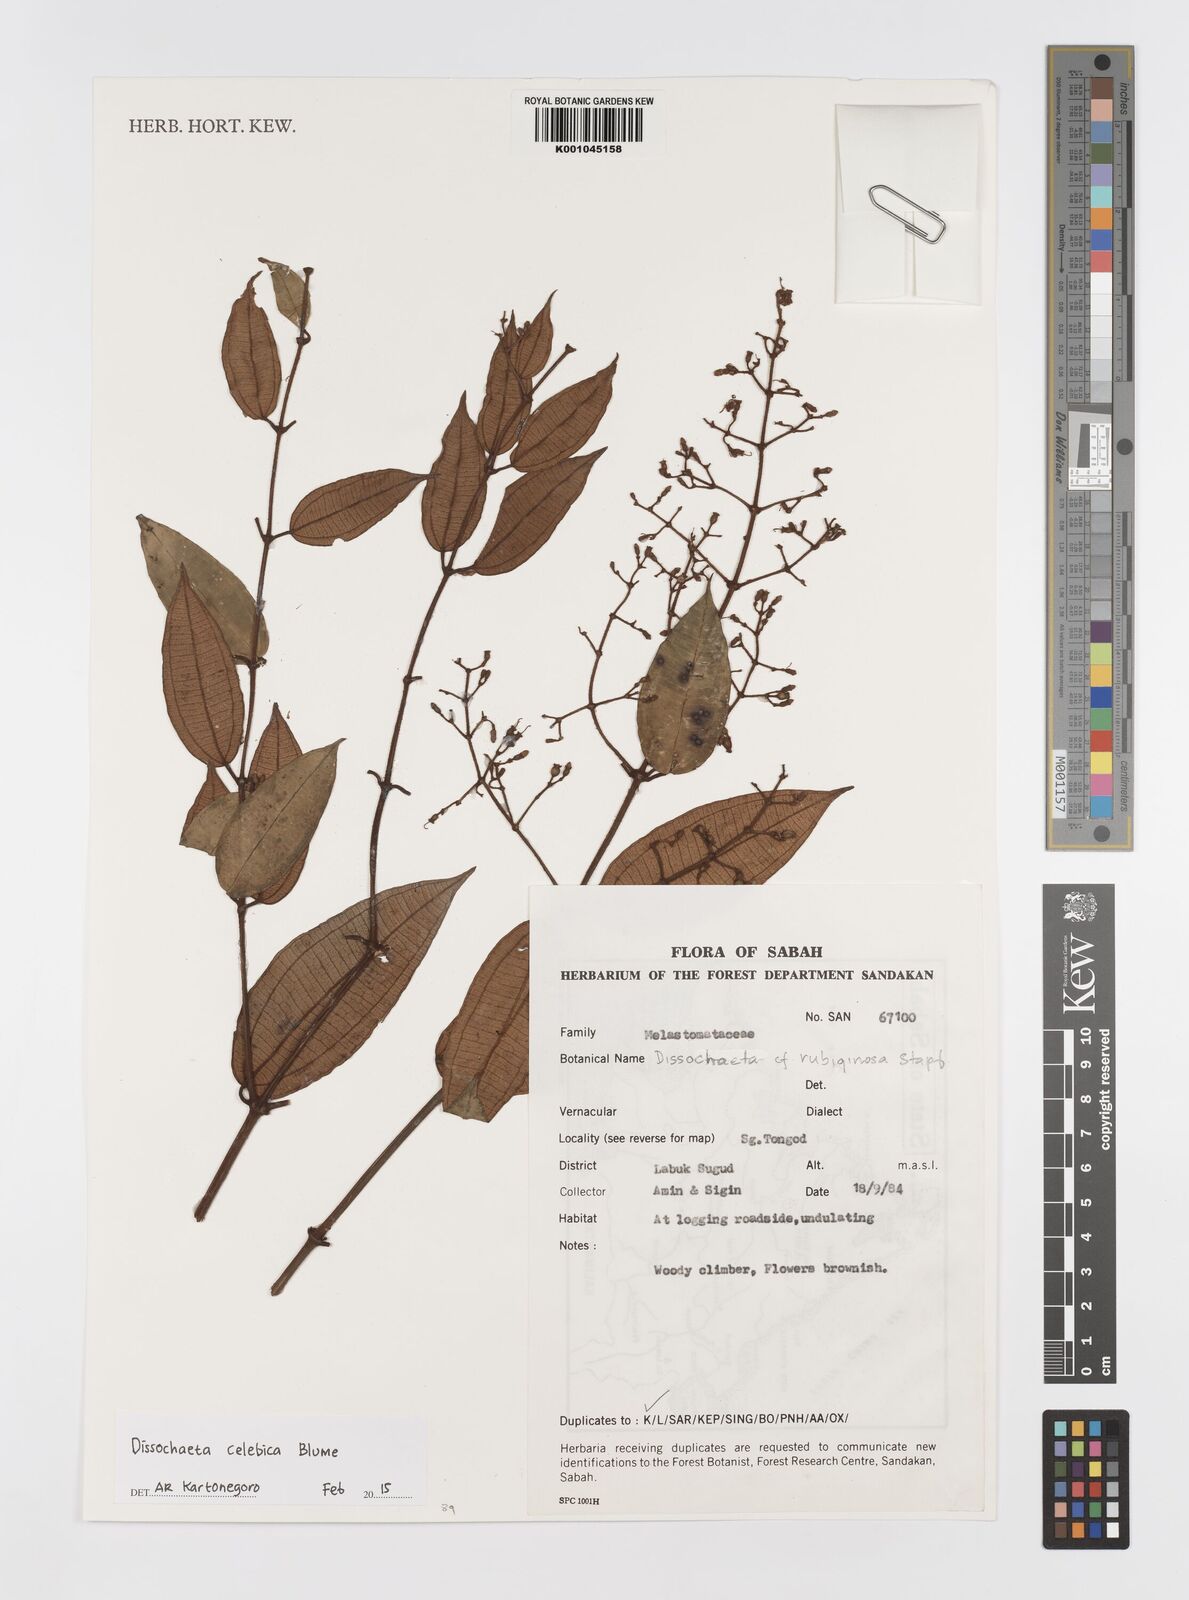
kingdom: Plantae
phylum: Tracheophyta
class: Magnoliopsida
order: Myrtales
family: Melastomataceae
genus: Dissochaeta
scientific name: Dissochaeta celebica
